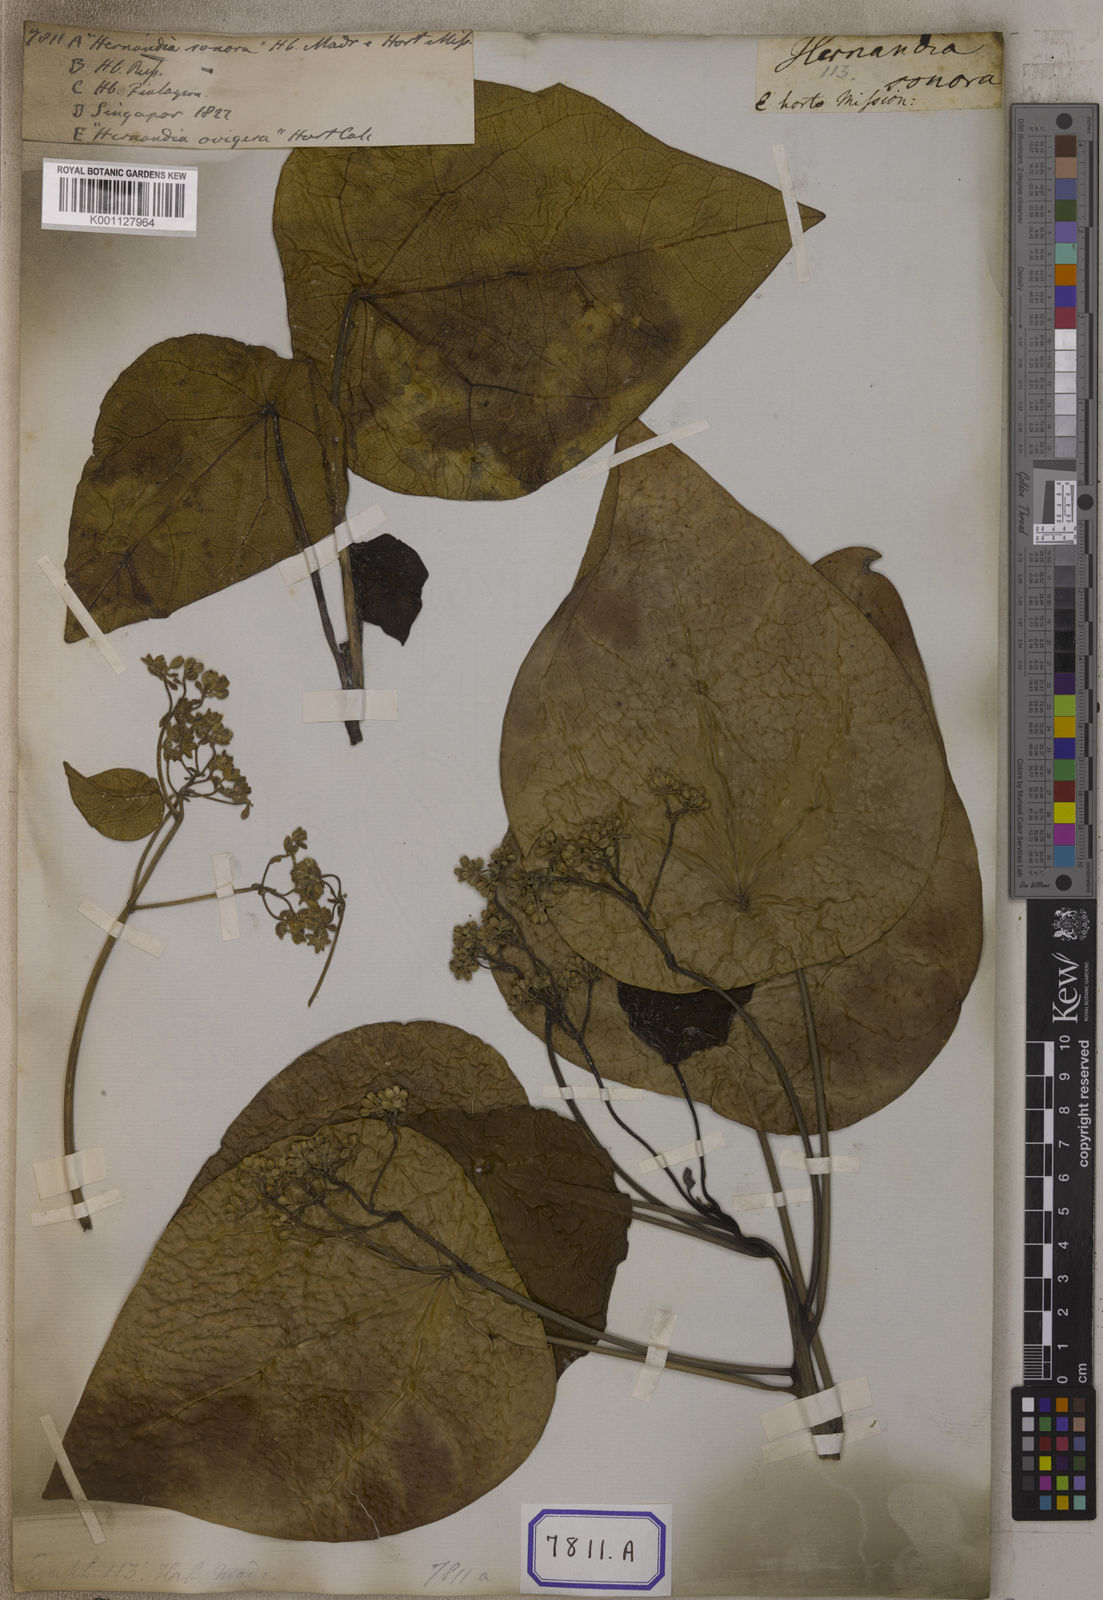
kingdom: Plantae
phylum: Tracheophyta
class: Magnoliopsida
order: Malpighiales
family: Euphorbiaceae
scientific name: Euphorbiaceae
